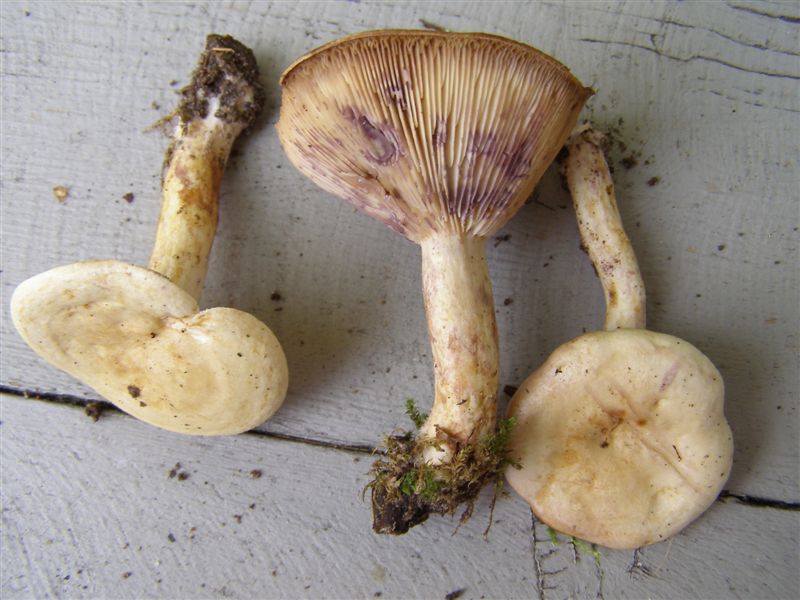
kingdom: Fungi
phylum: Basidiomycota
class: Agaricomycetes
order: Russulales
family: Russulaceae
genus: Lactarius
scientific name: Lactarius aspideus
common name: pile-mælkehat
